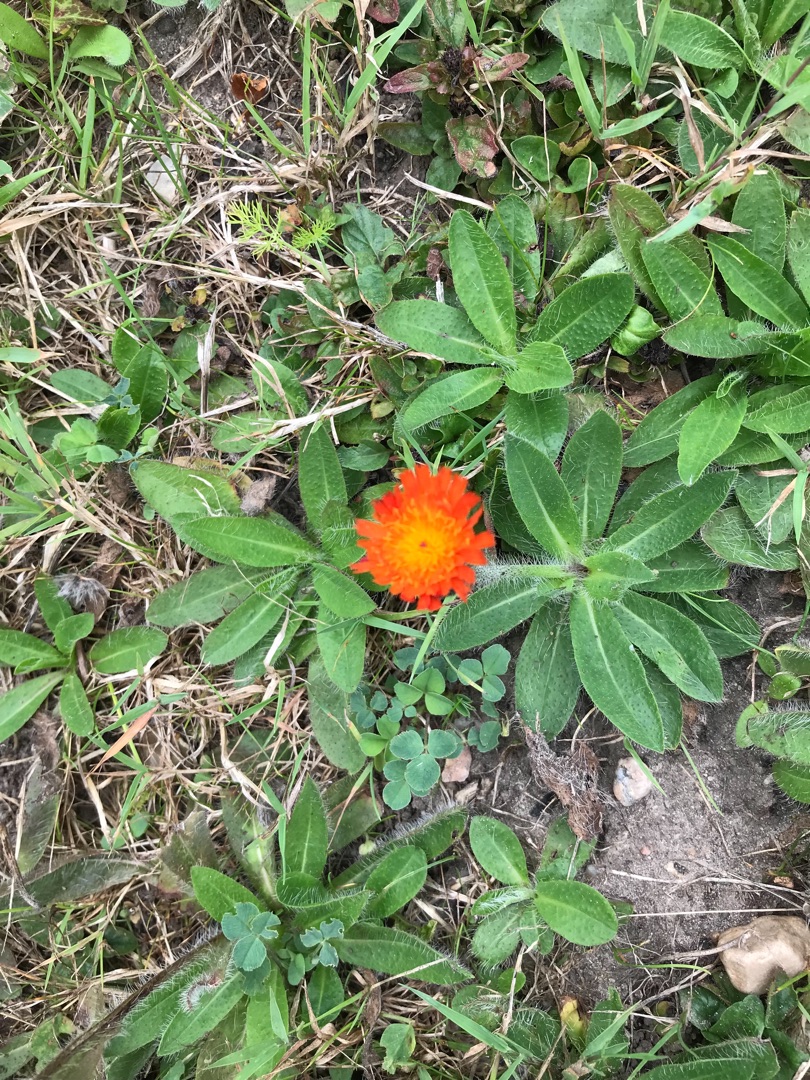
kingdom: Plantae
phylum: Tracheophyta
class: Magnoliopsida
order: Asterales
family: Asteraceae
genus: Pilosella
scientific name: Pilosella aurantiaca
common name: Pomerans-høgeurt
